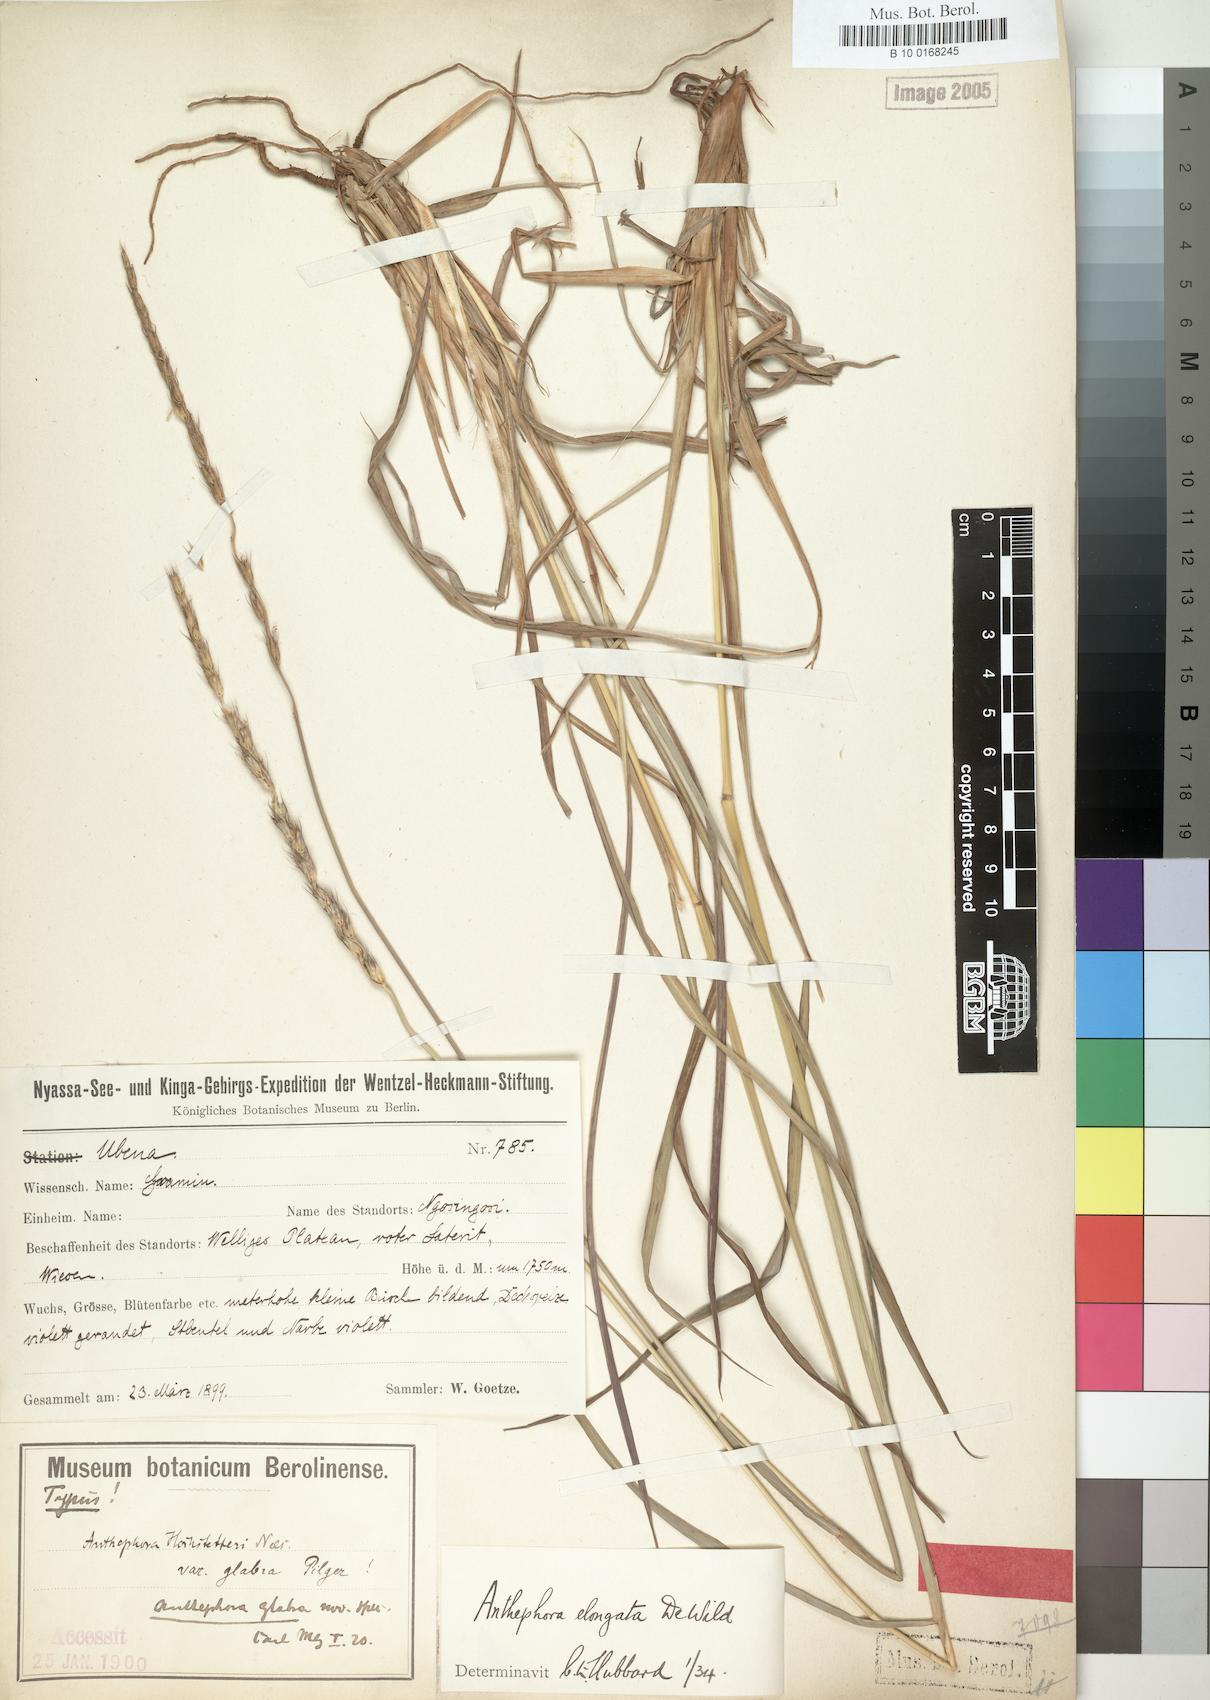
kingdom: Plantae
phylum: Tracheophyta
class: Liliopsida
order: Poales
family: Poaceae
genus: Anthephora
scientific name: Anthephora elongata
